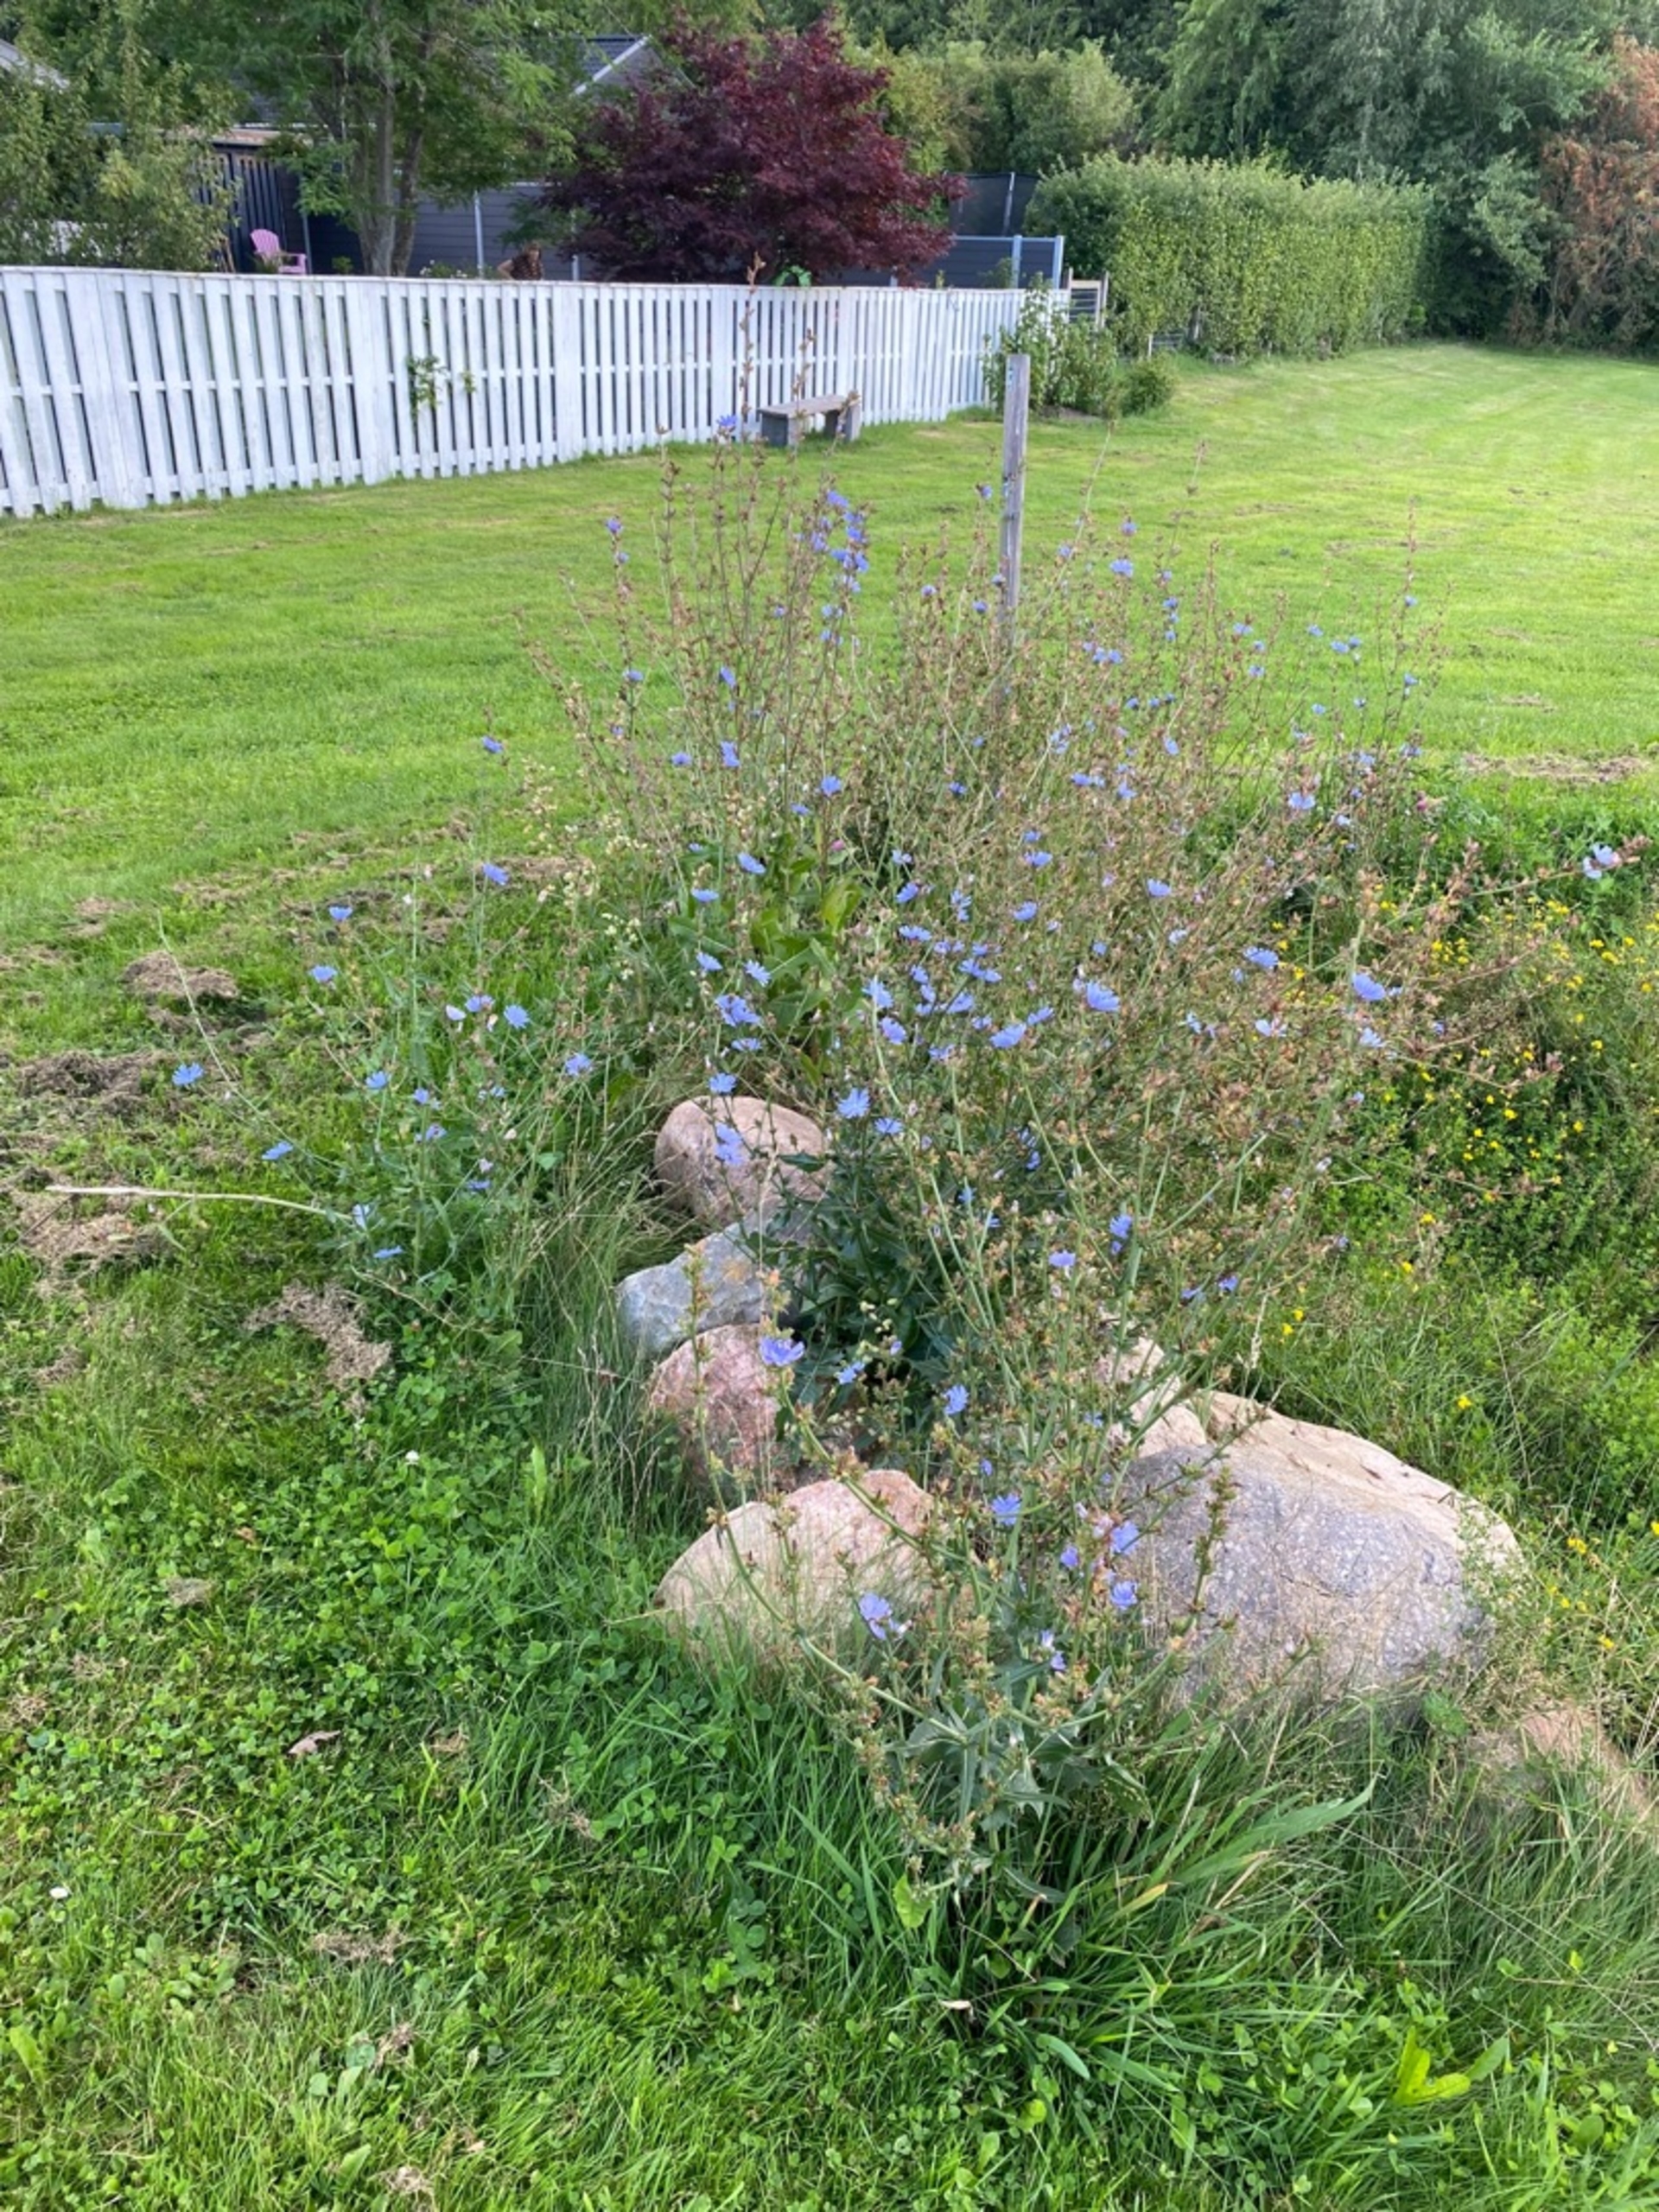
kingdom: Plantae
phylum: Tracheophyta
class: Magnoliopsida
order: Asterales
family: Asteraceae
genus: Cichorium
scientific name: Cichorium intybus
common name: Cikorie
